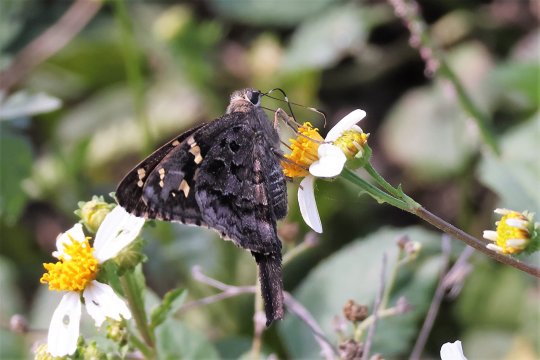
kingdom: Animalia
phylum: Arthropoda
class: Insecta
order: Lepidoptera
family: Hesperiidae
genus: Urbanus
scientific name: Urbanus dorantes
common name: Dorantes Longtail
